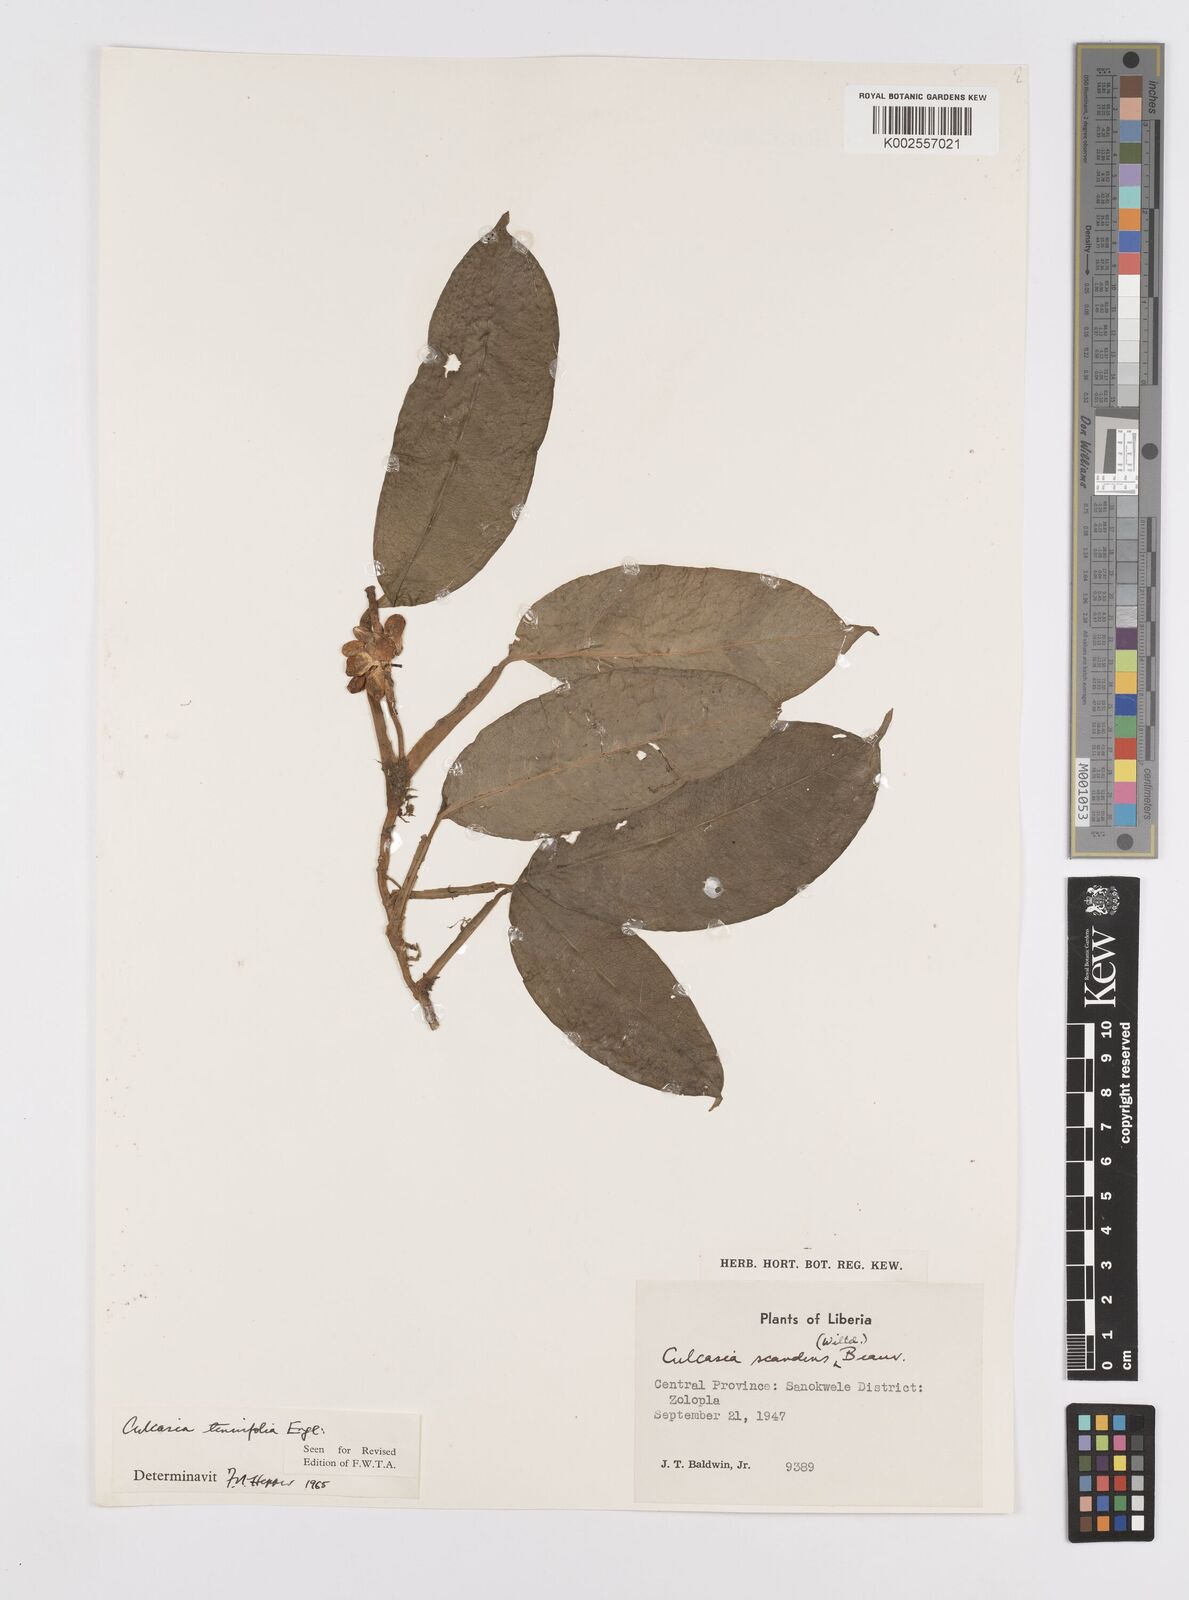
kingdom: Plantae
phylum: Tracheophyta
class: Liliopsida
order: Alismatales
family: Araceae
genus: Culcasia
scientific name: Culcasia tenuifolia
